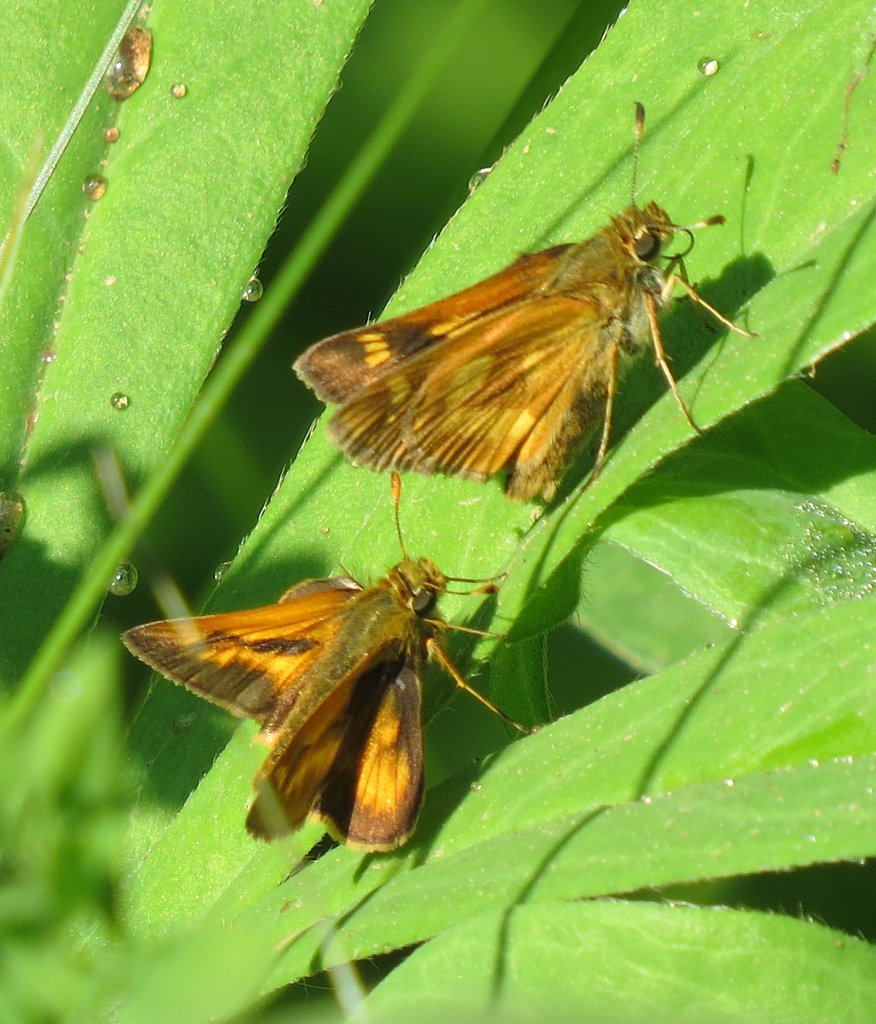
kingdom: Animalia
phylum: Arthropoda
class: Insecta
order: Lepidoptera
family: Hesperiidae
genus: Polites
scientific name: Polites
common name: Long Dash Skipper
